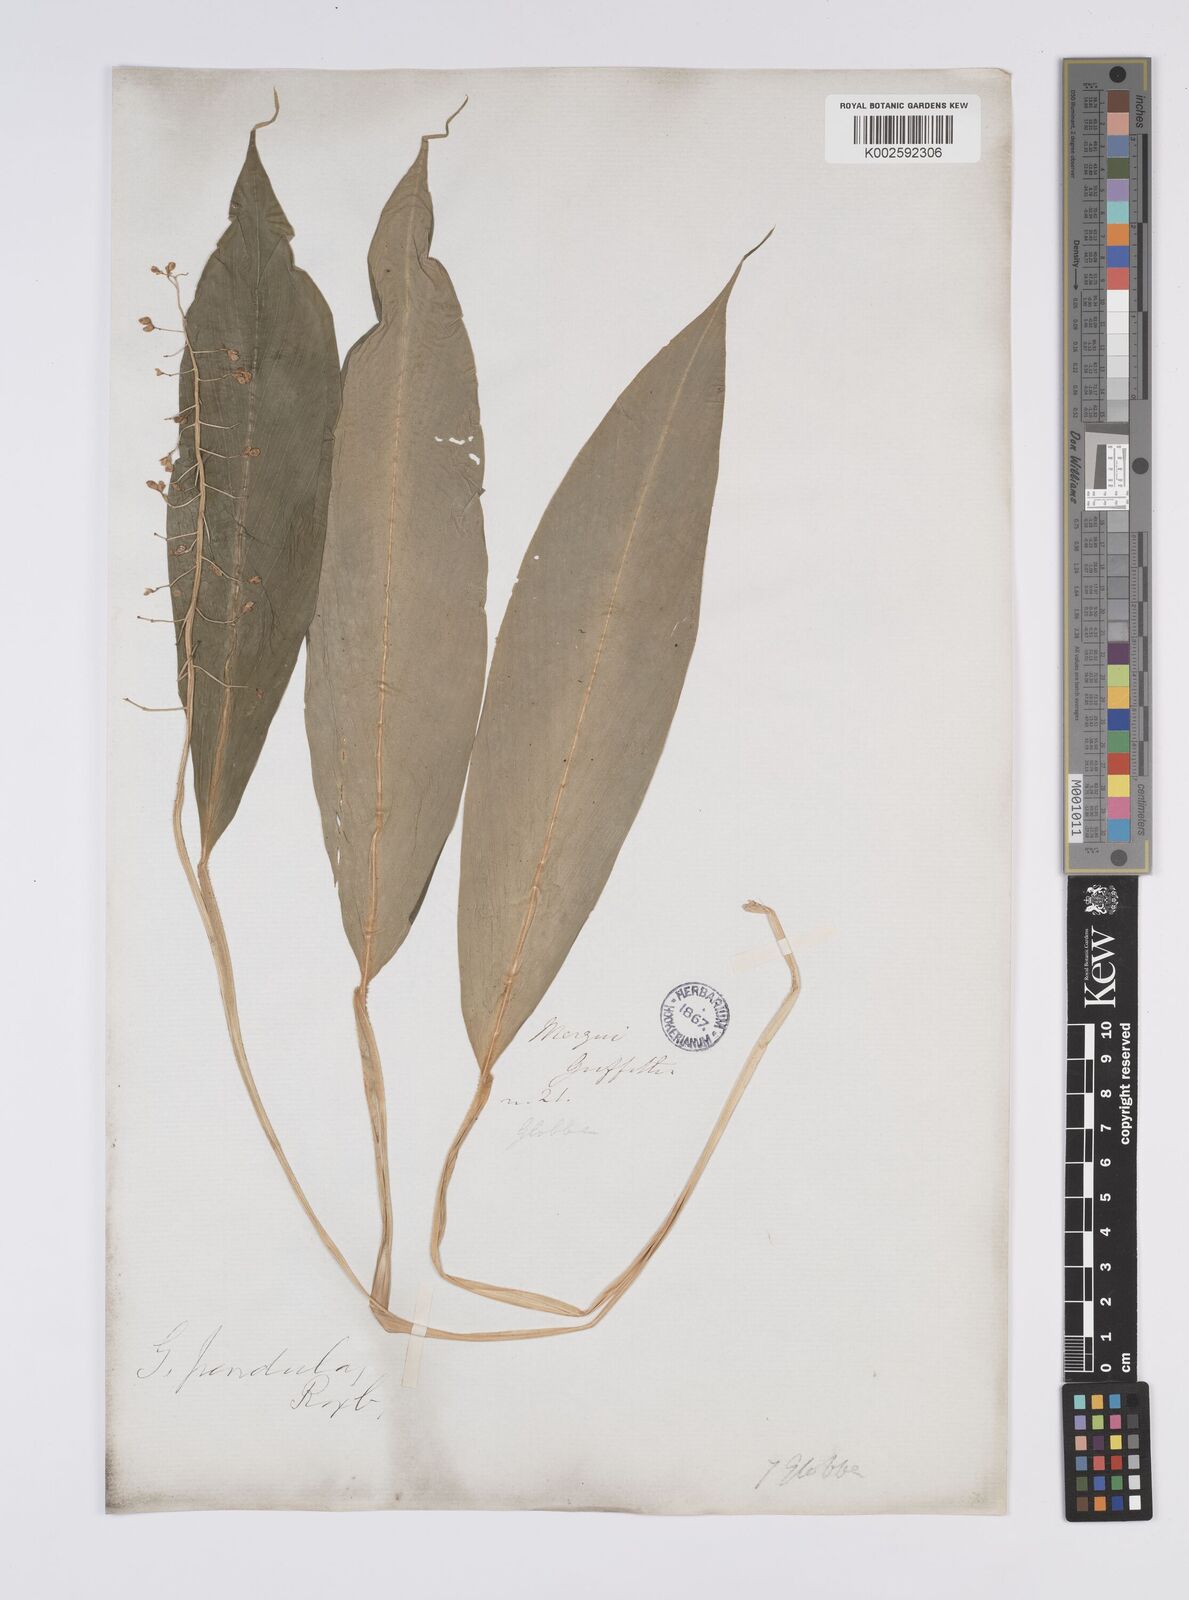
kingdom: Plantae
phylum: Tracheophyta
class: Liliopsida
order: Zingiberales
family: Zingiberaceae
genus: Globba
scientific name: Globba pendula
